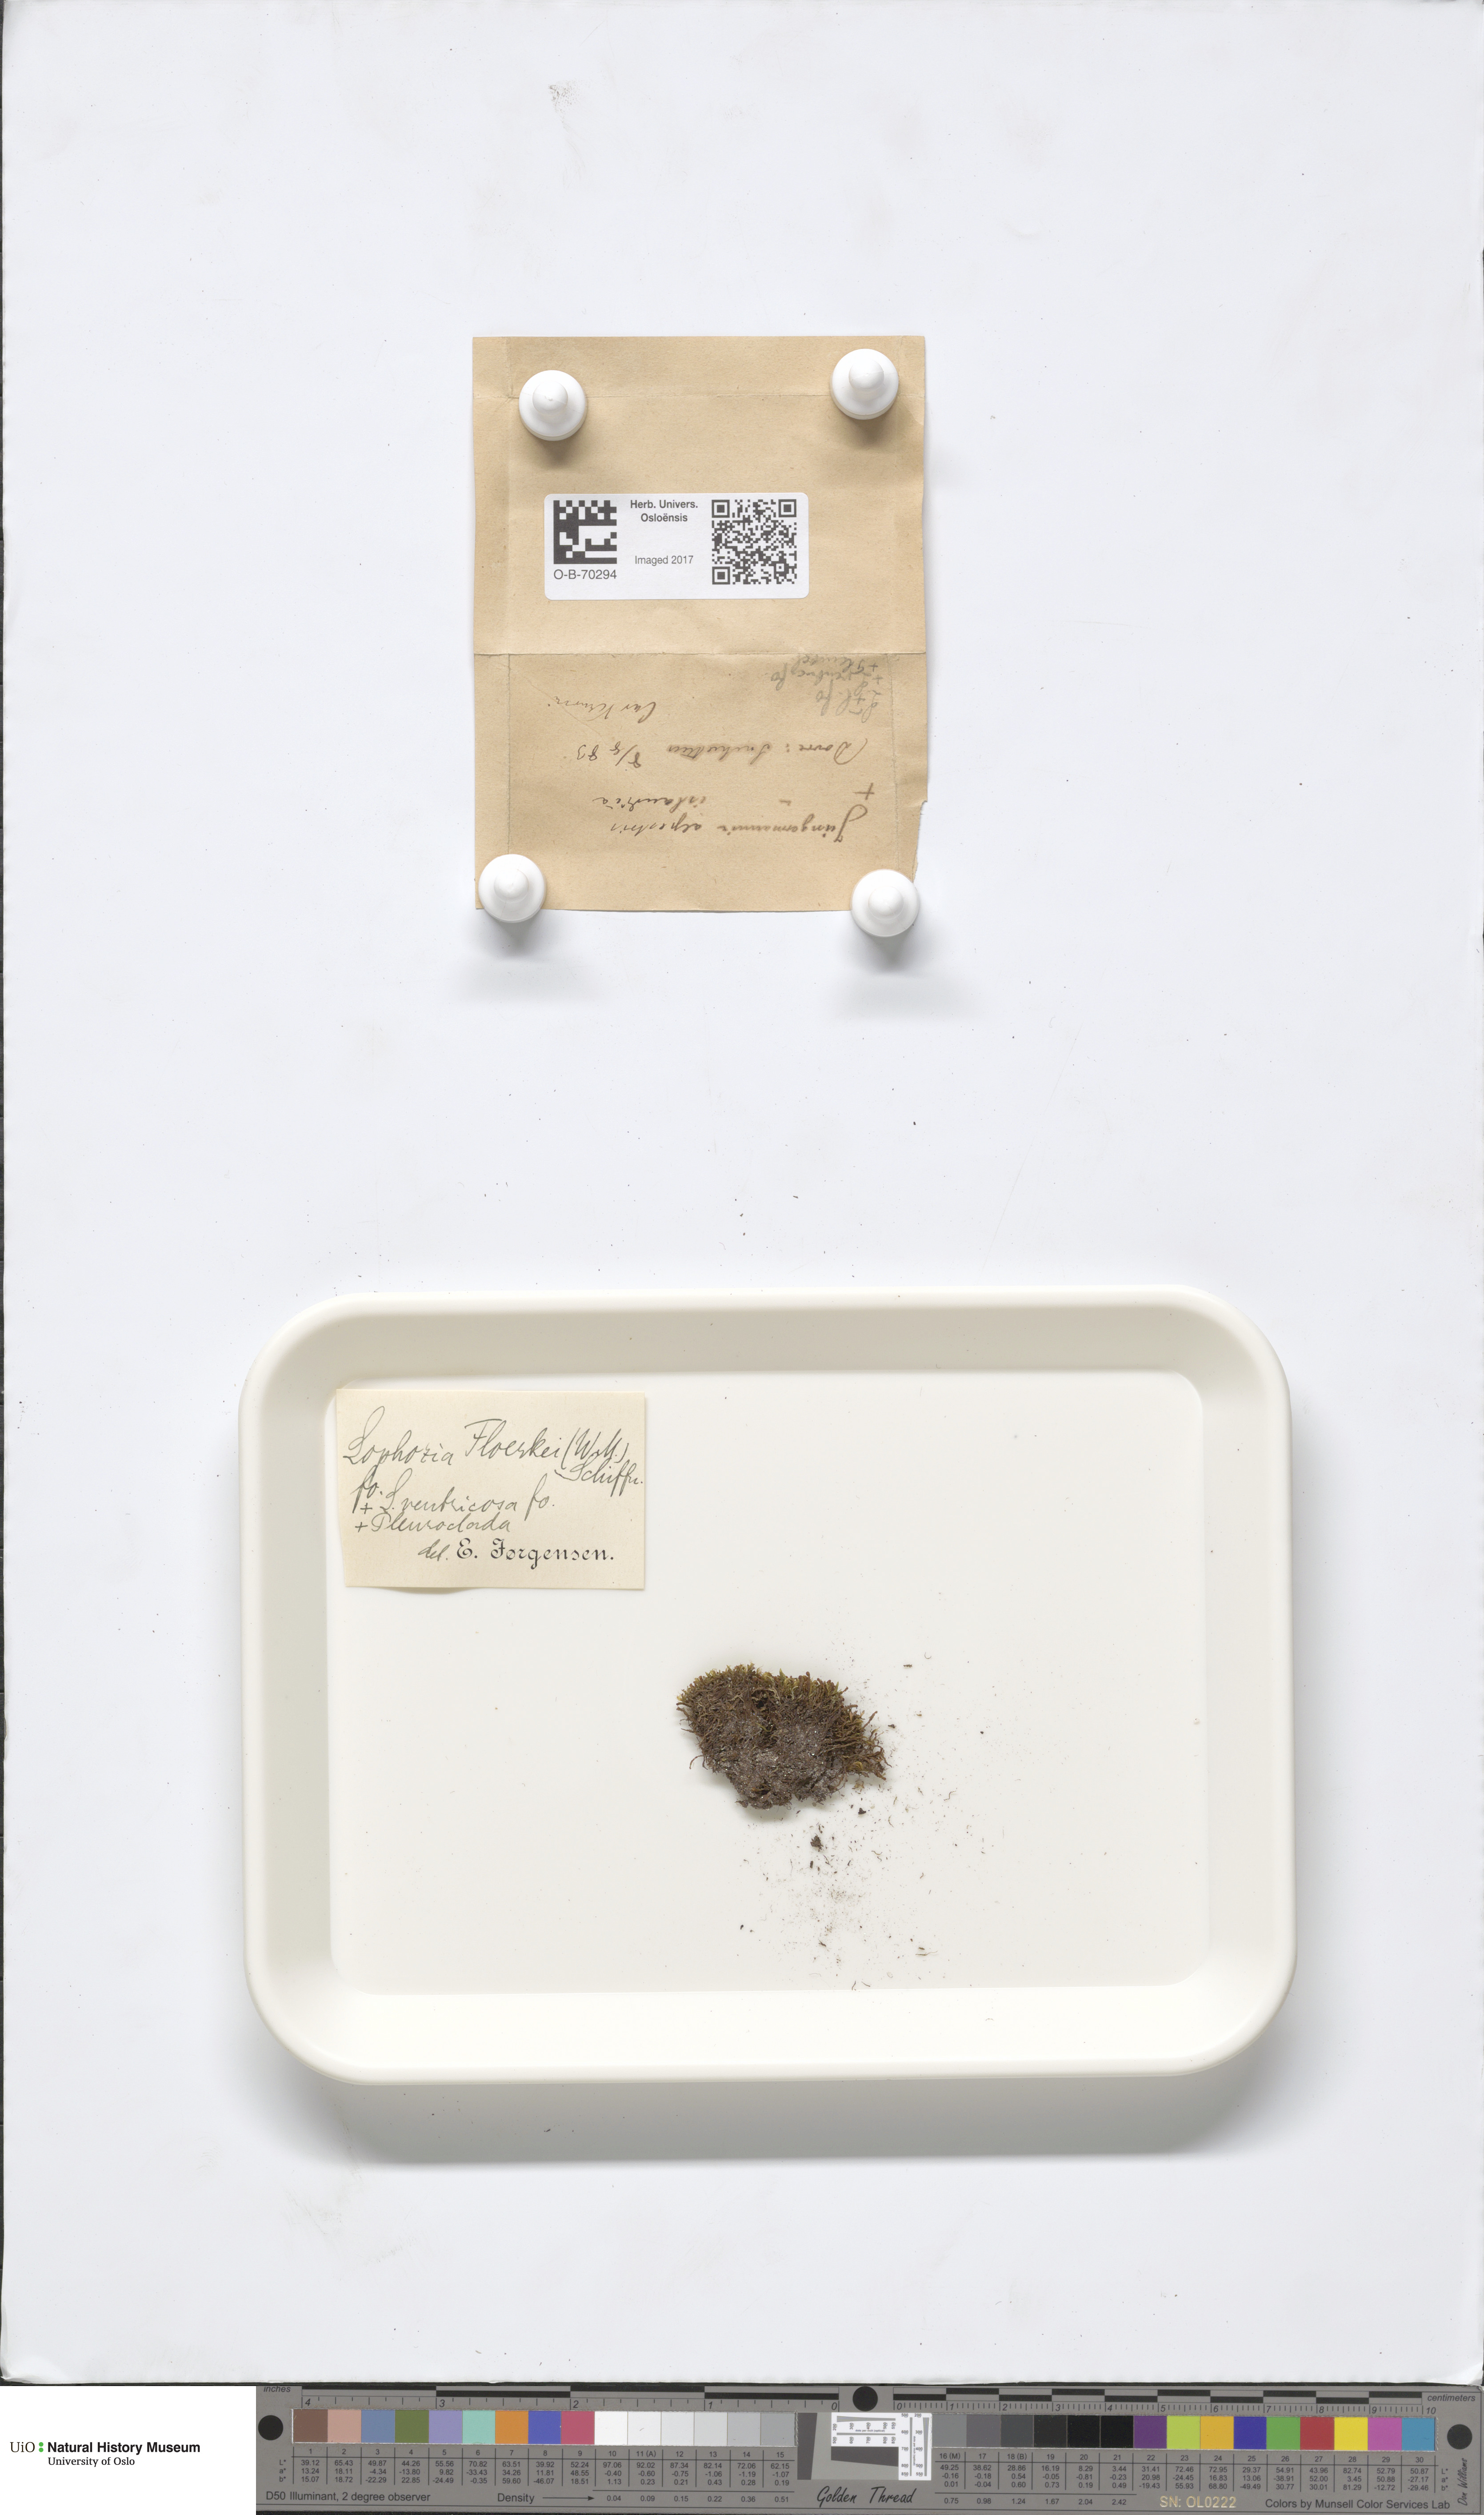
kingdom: Plantae
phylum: Marchantiophyta
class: Jungermanniopsida
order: Jungermanniales
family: Anastrophyllaceae
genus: Neoorthocaulis
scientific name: Neoorthocaulis floerkei
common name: Floerke's barbilophozia
